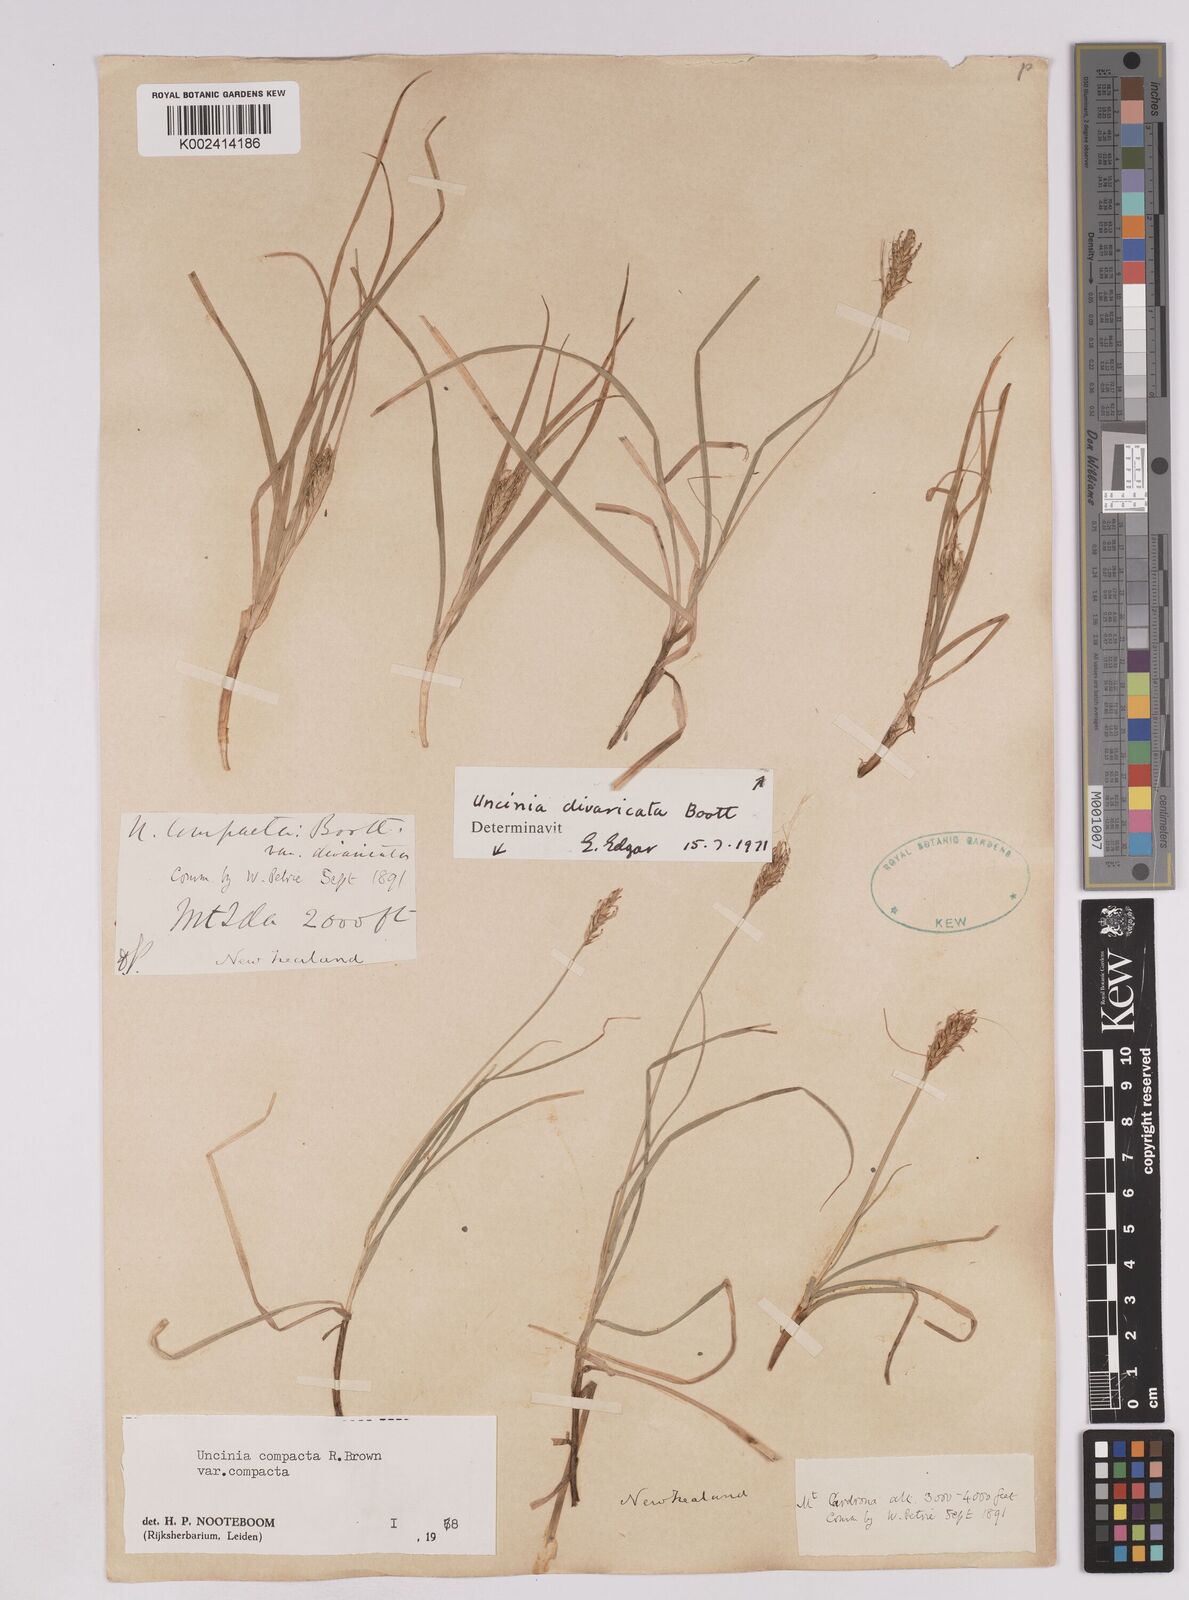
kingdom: Plantae
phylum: Tracheophyta
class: Liliopsida
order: Poales
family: Cyperaceae
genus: Carex
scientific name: Carex austrocompacta
